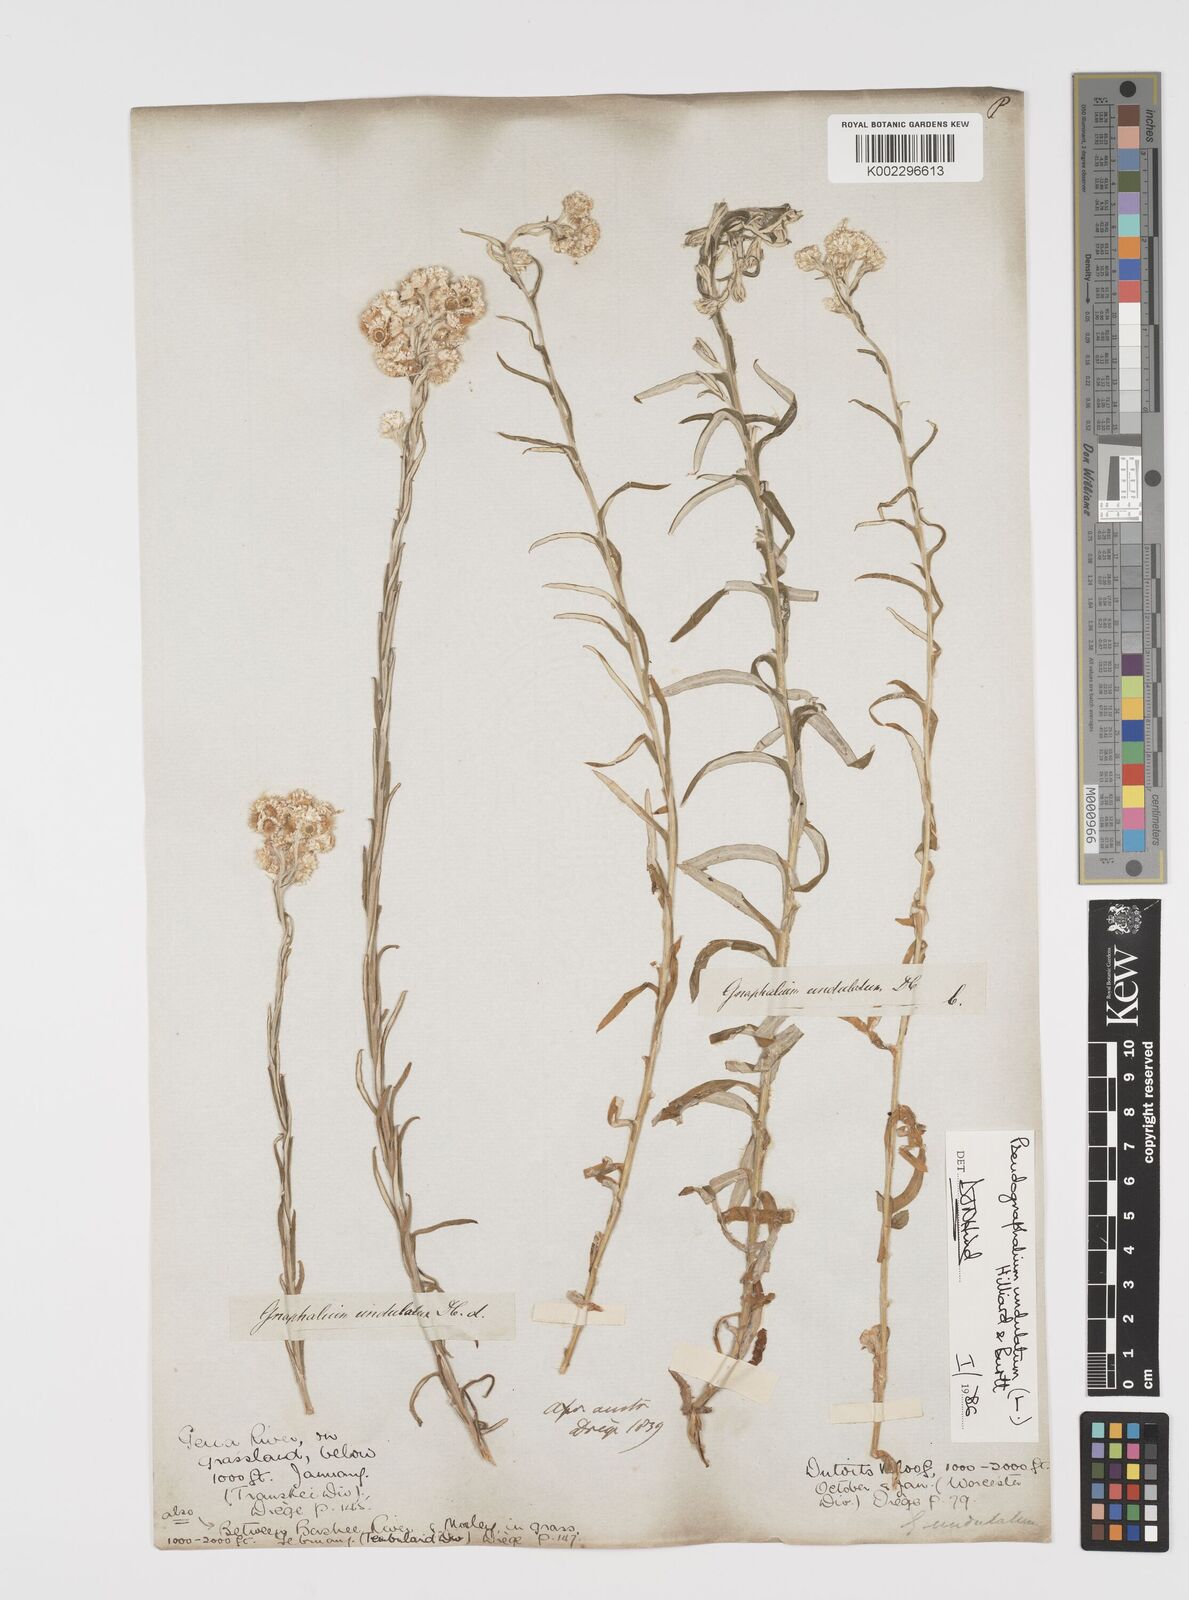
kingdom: Plantae
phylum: Tracheophyta
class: Magnoliopsida
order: Asterales
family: Asteraceae
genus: Pseudognaphalium
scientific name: Pseudognaphalium undulatum
